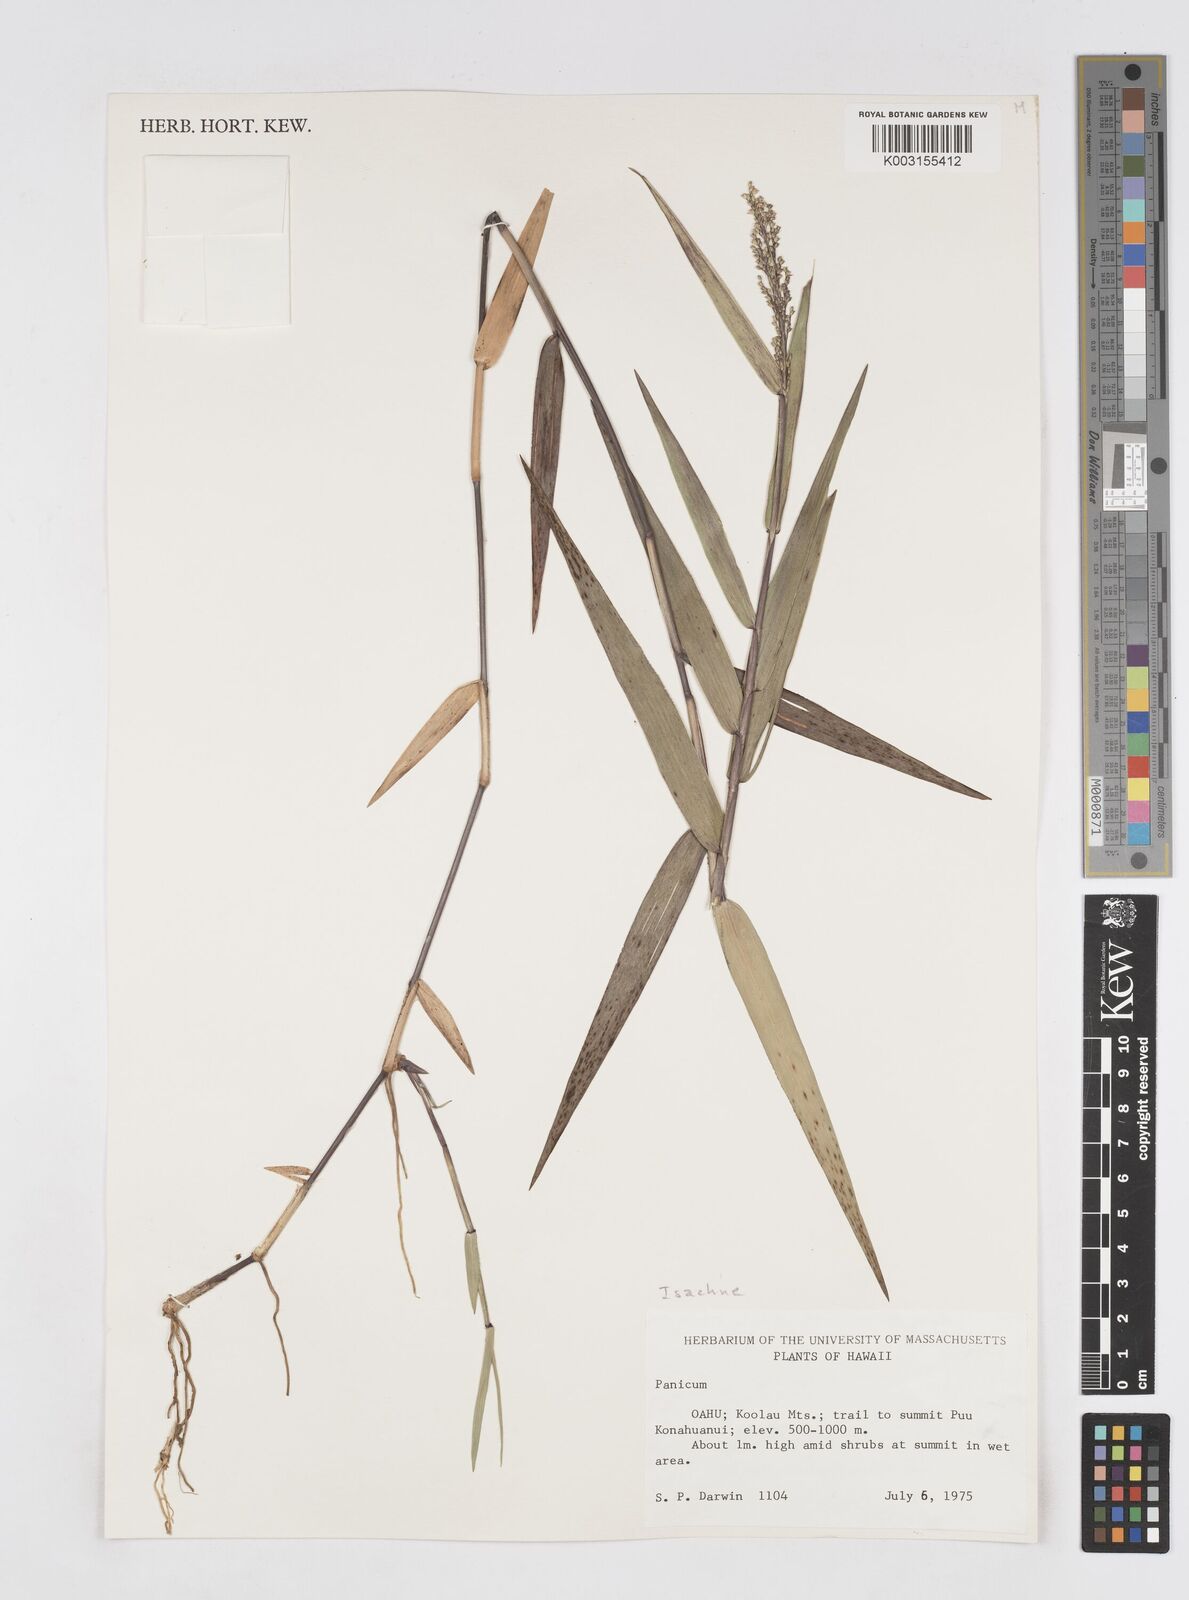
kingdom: Plantae
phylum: Tracheophyta
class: Liliopsida
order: Poales
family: Poaceae
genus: Isachne
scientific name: Isachne distichophylla
